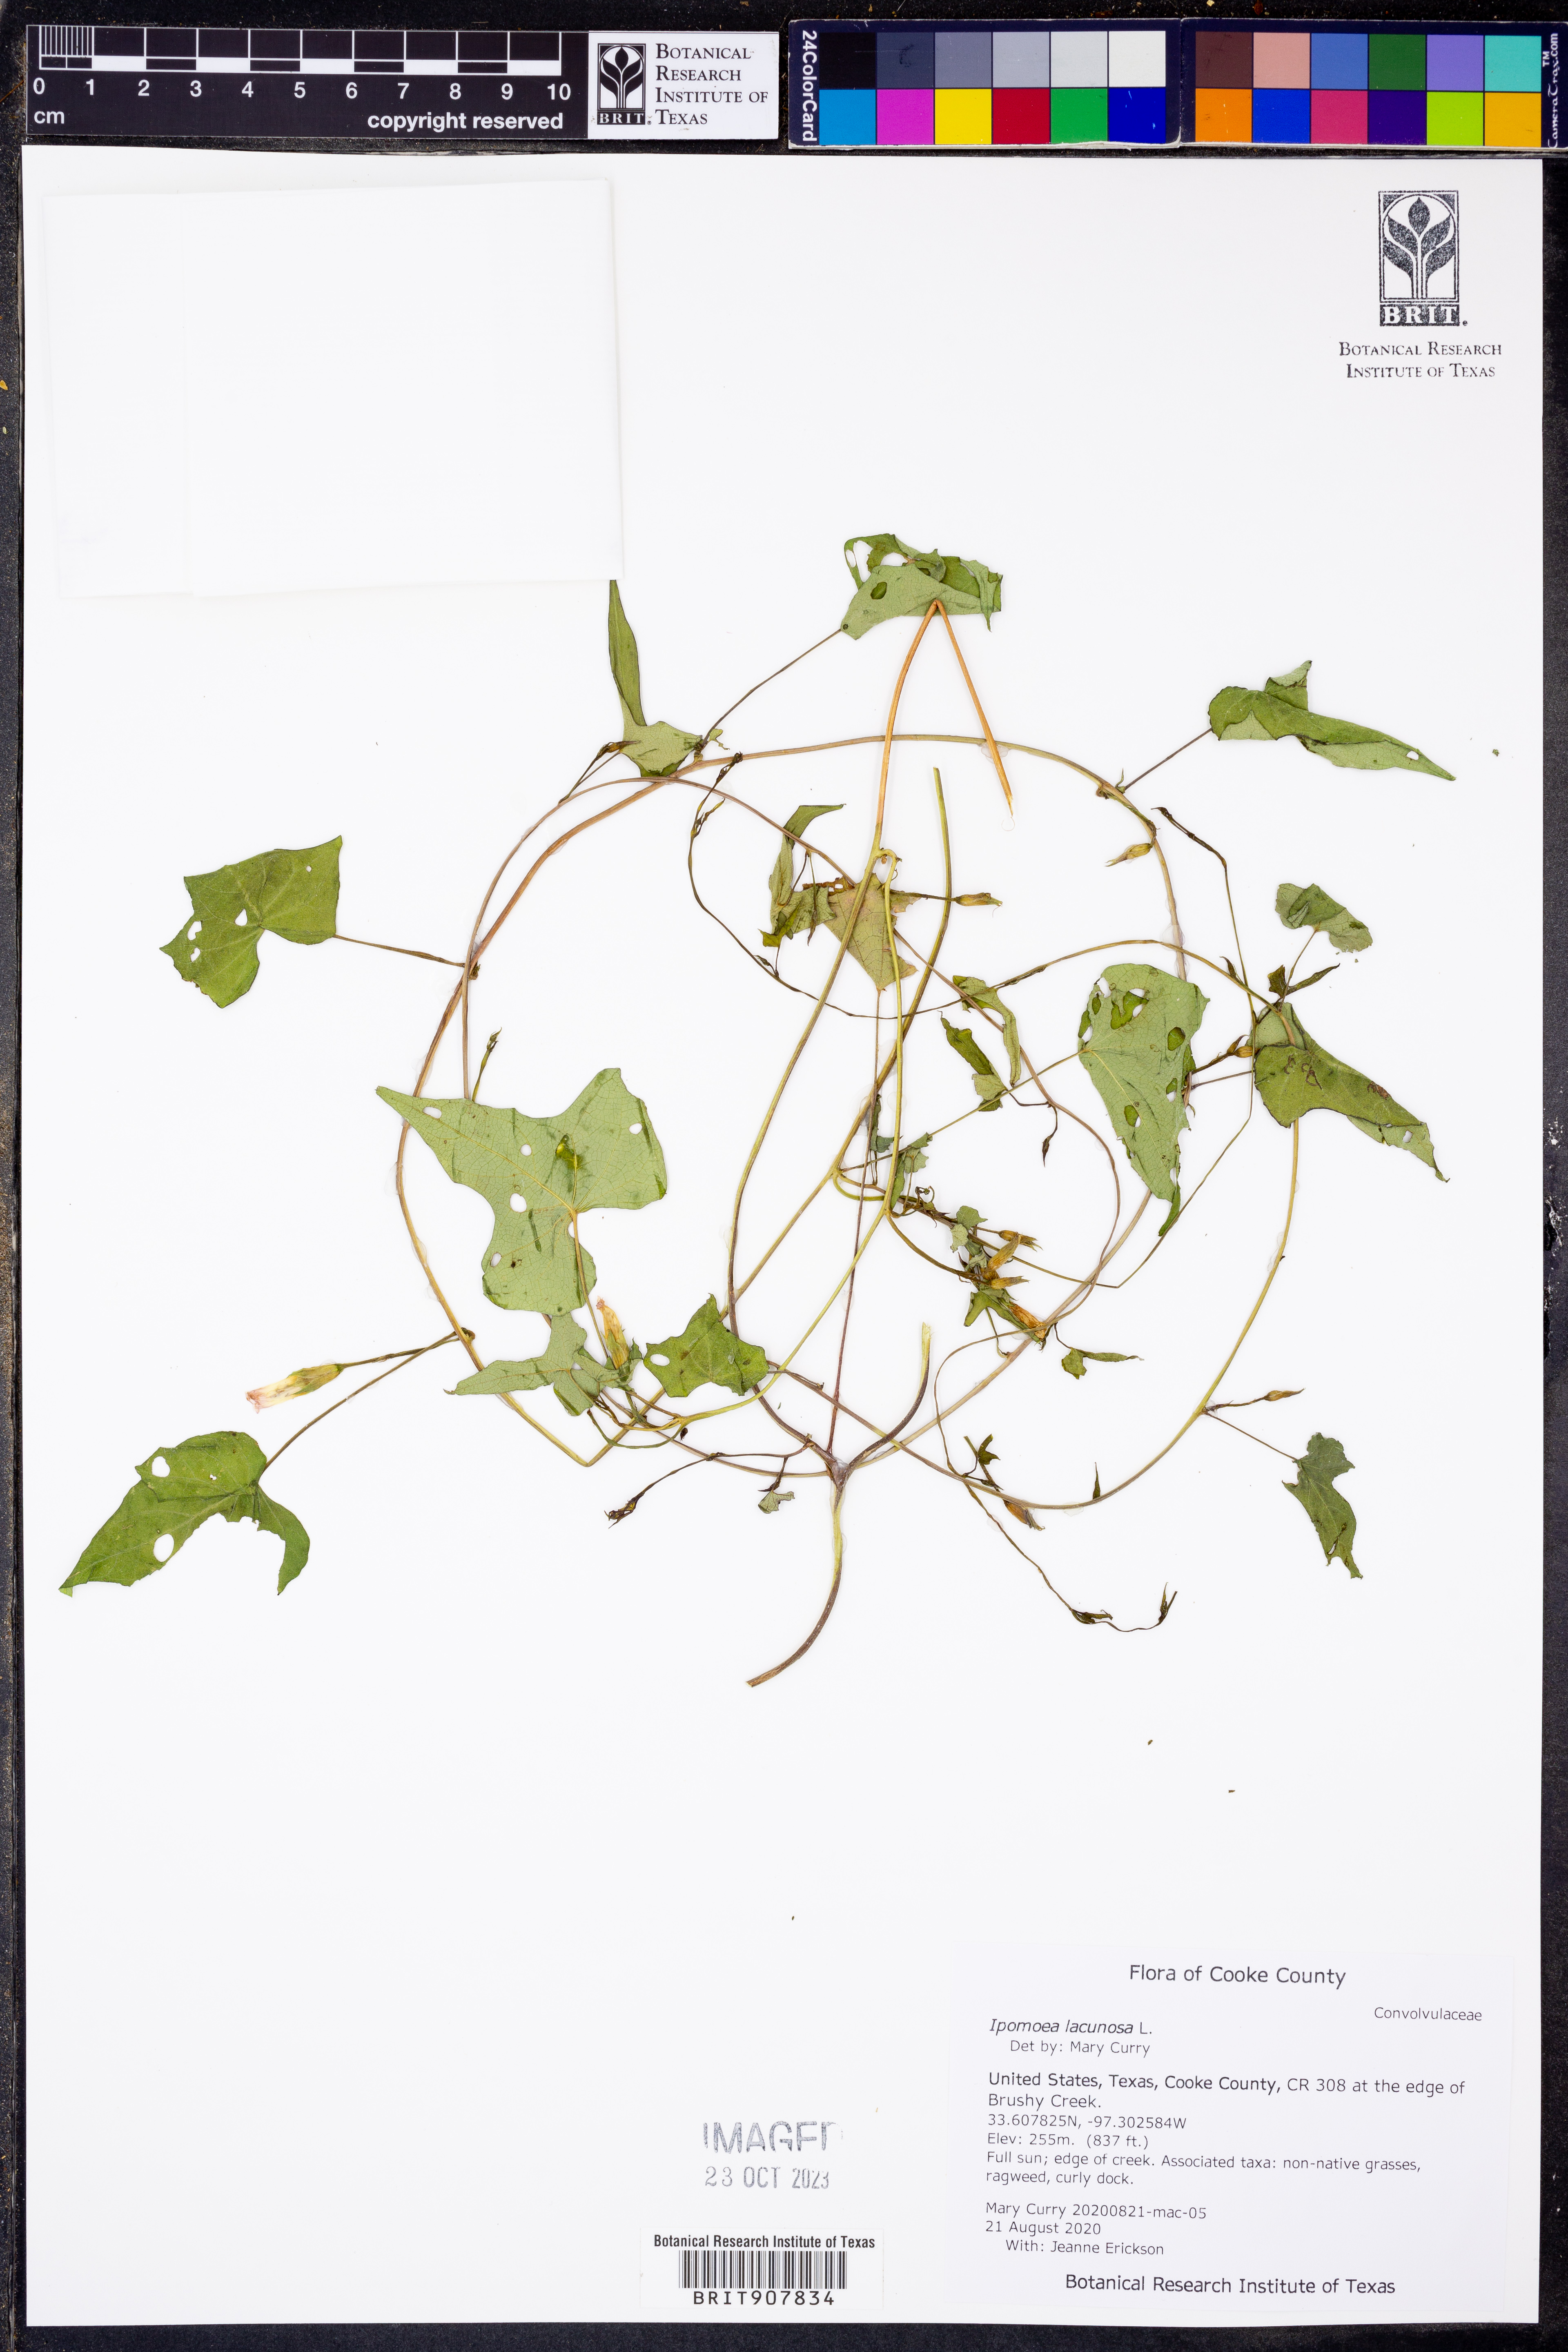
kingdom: Plantae
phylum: Tracheophyta
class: Magnoliopsida
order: Solanales
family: Convolvulaceae
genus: Ipomoea
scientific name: Ipomoea lacunosa
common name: White morning-glory
